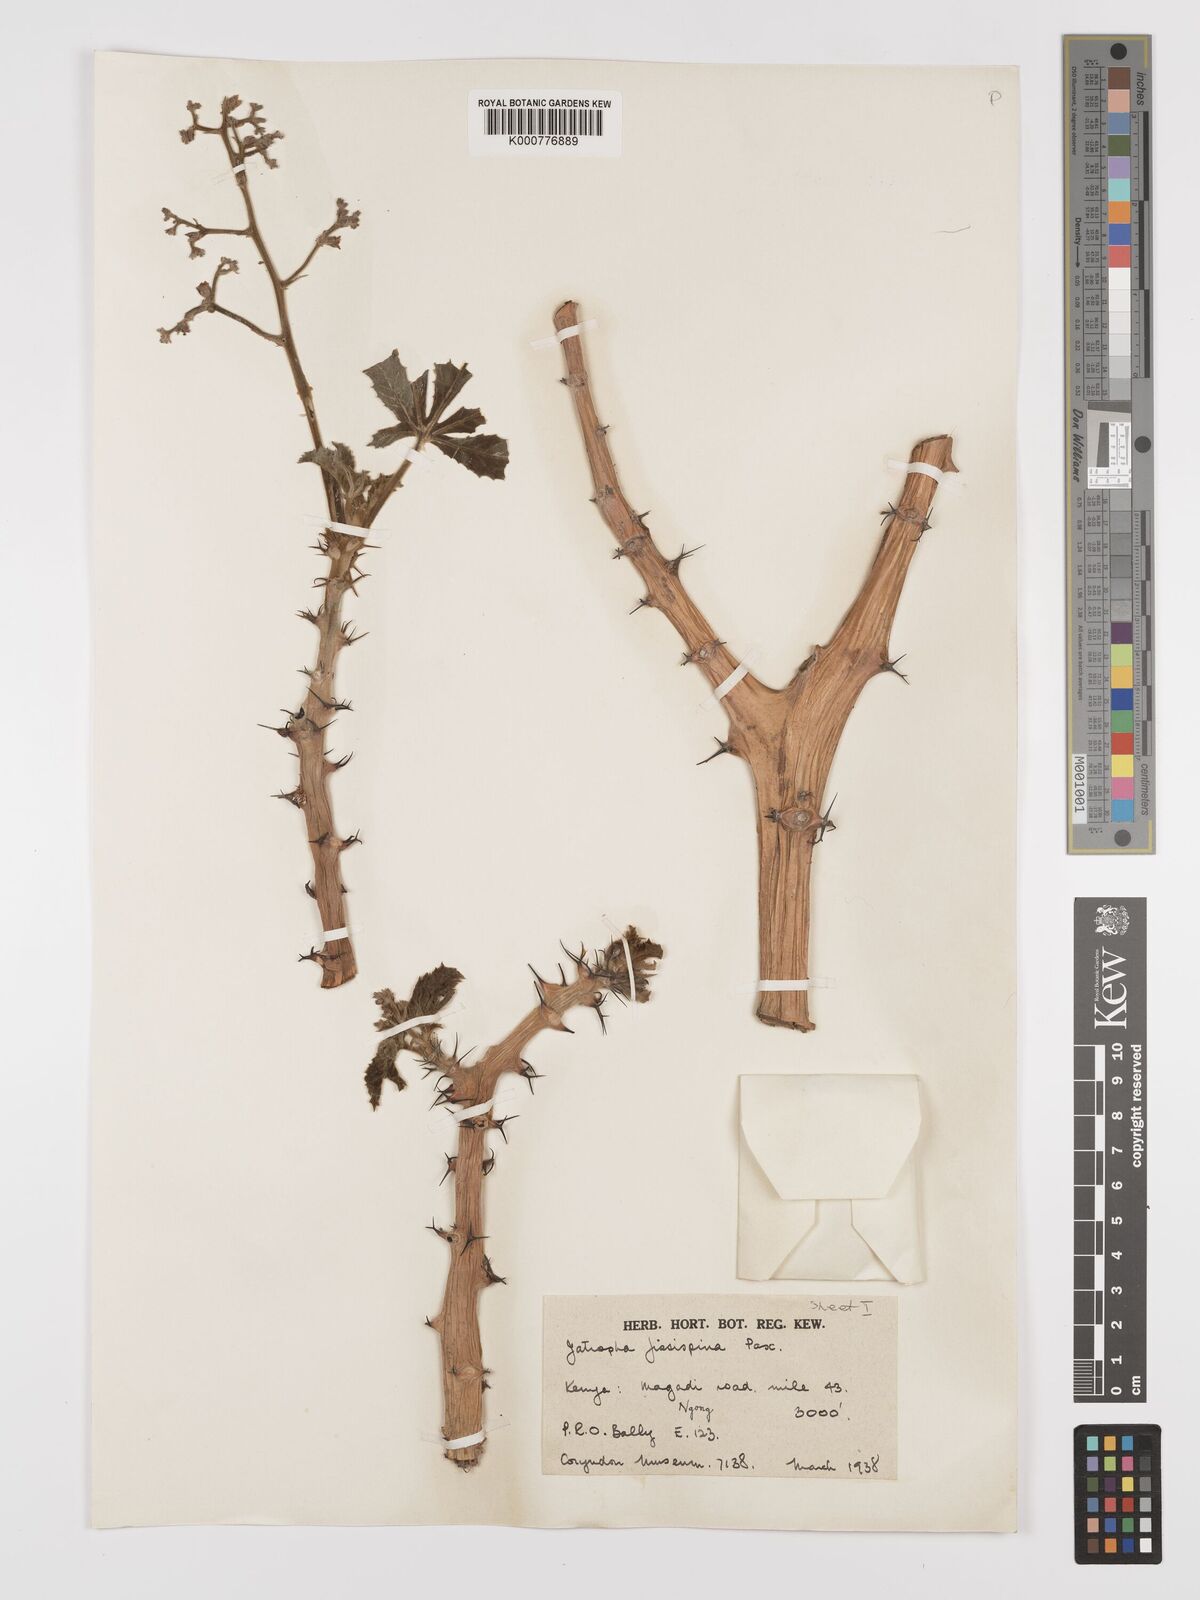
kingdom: Plantae
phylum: Tracheophyta
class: Magnoliopsida
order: Malpighiales
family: Euphorbiaceae
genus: Jatropha
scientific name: Jatropha ellenbeckii
